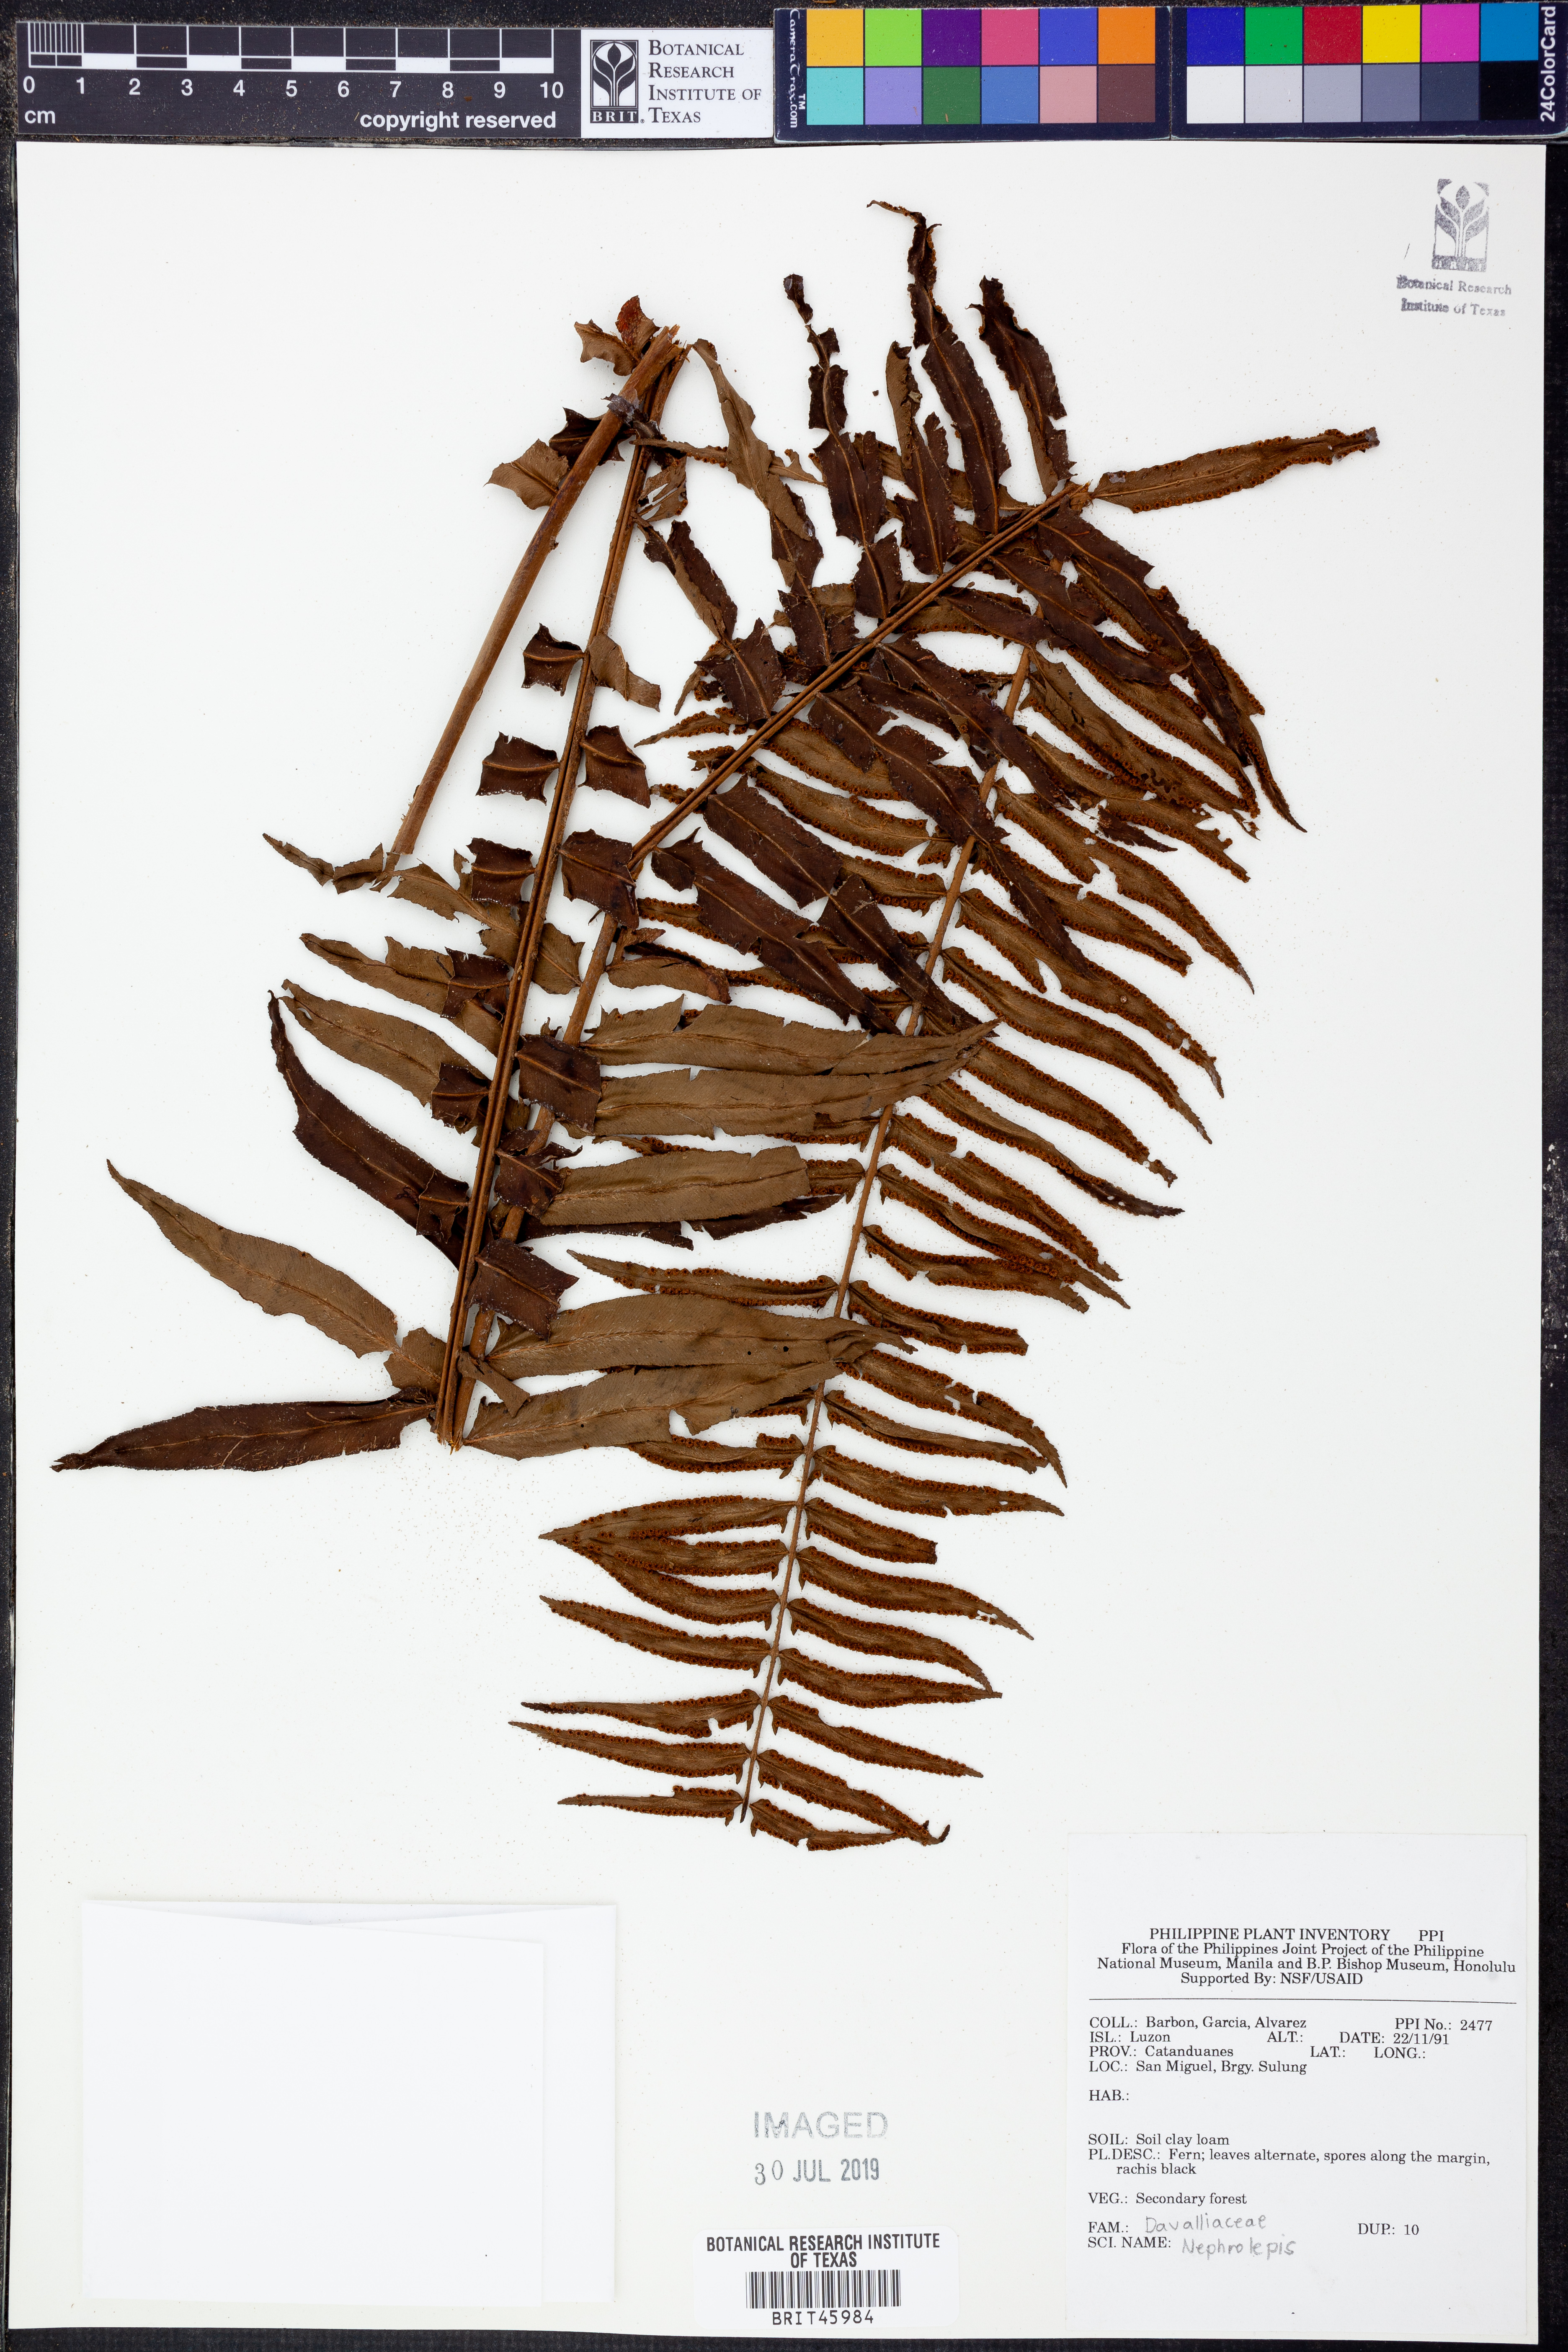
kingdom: Plantae
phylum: Tracheophyta
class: Polypodiopsida
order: Polypodiales
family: Nephrolepidaceae
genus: Nephrolepis
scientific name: Nephrolepis
